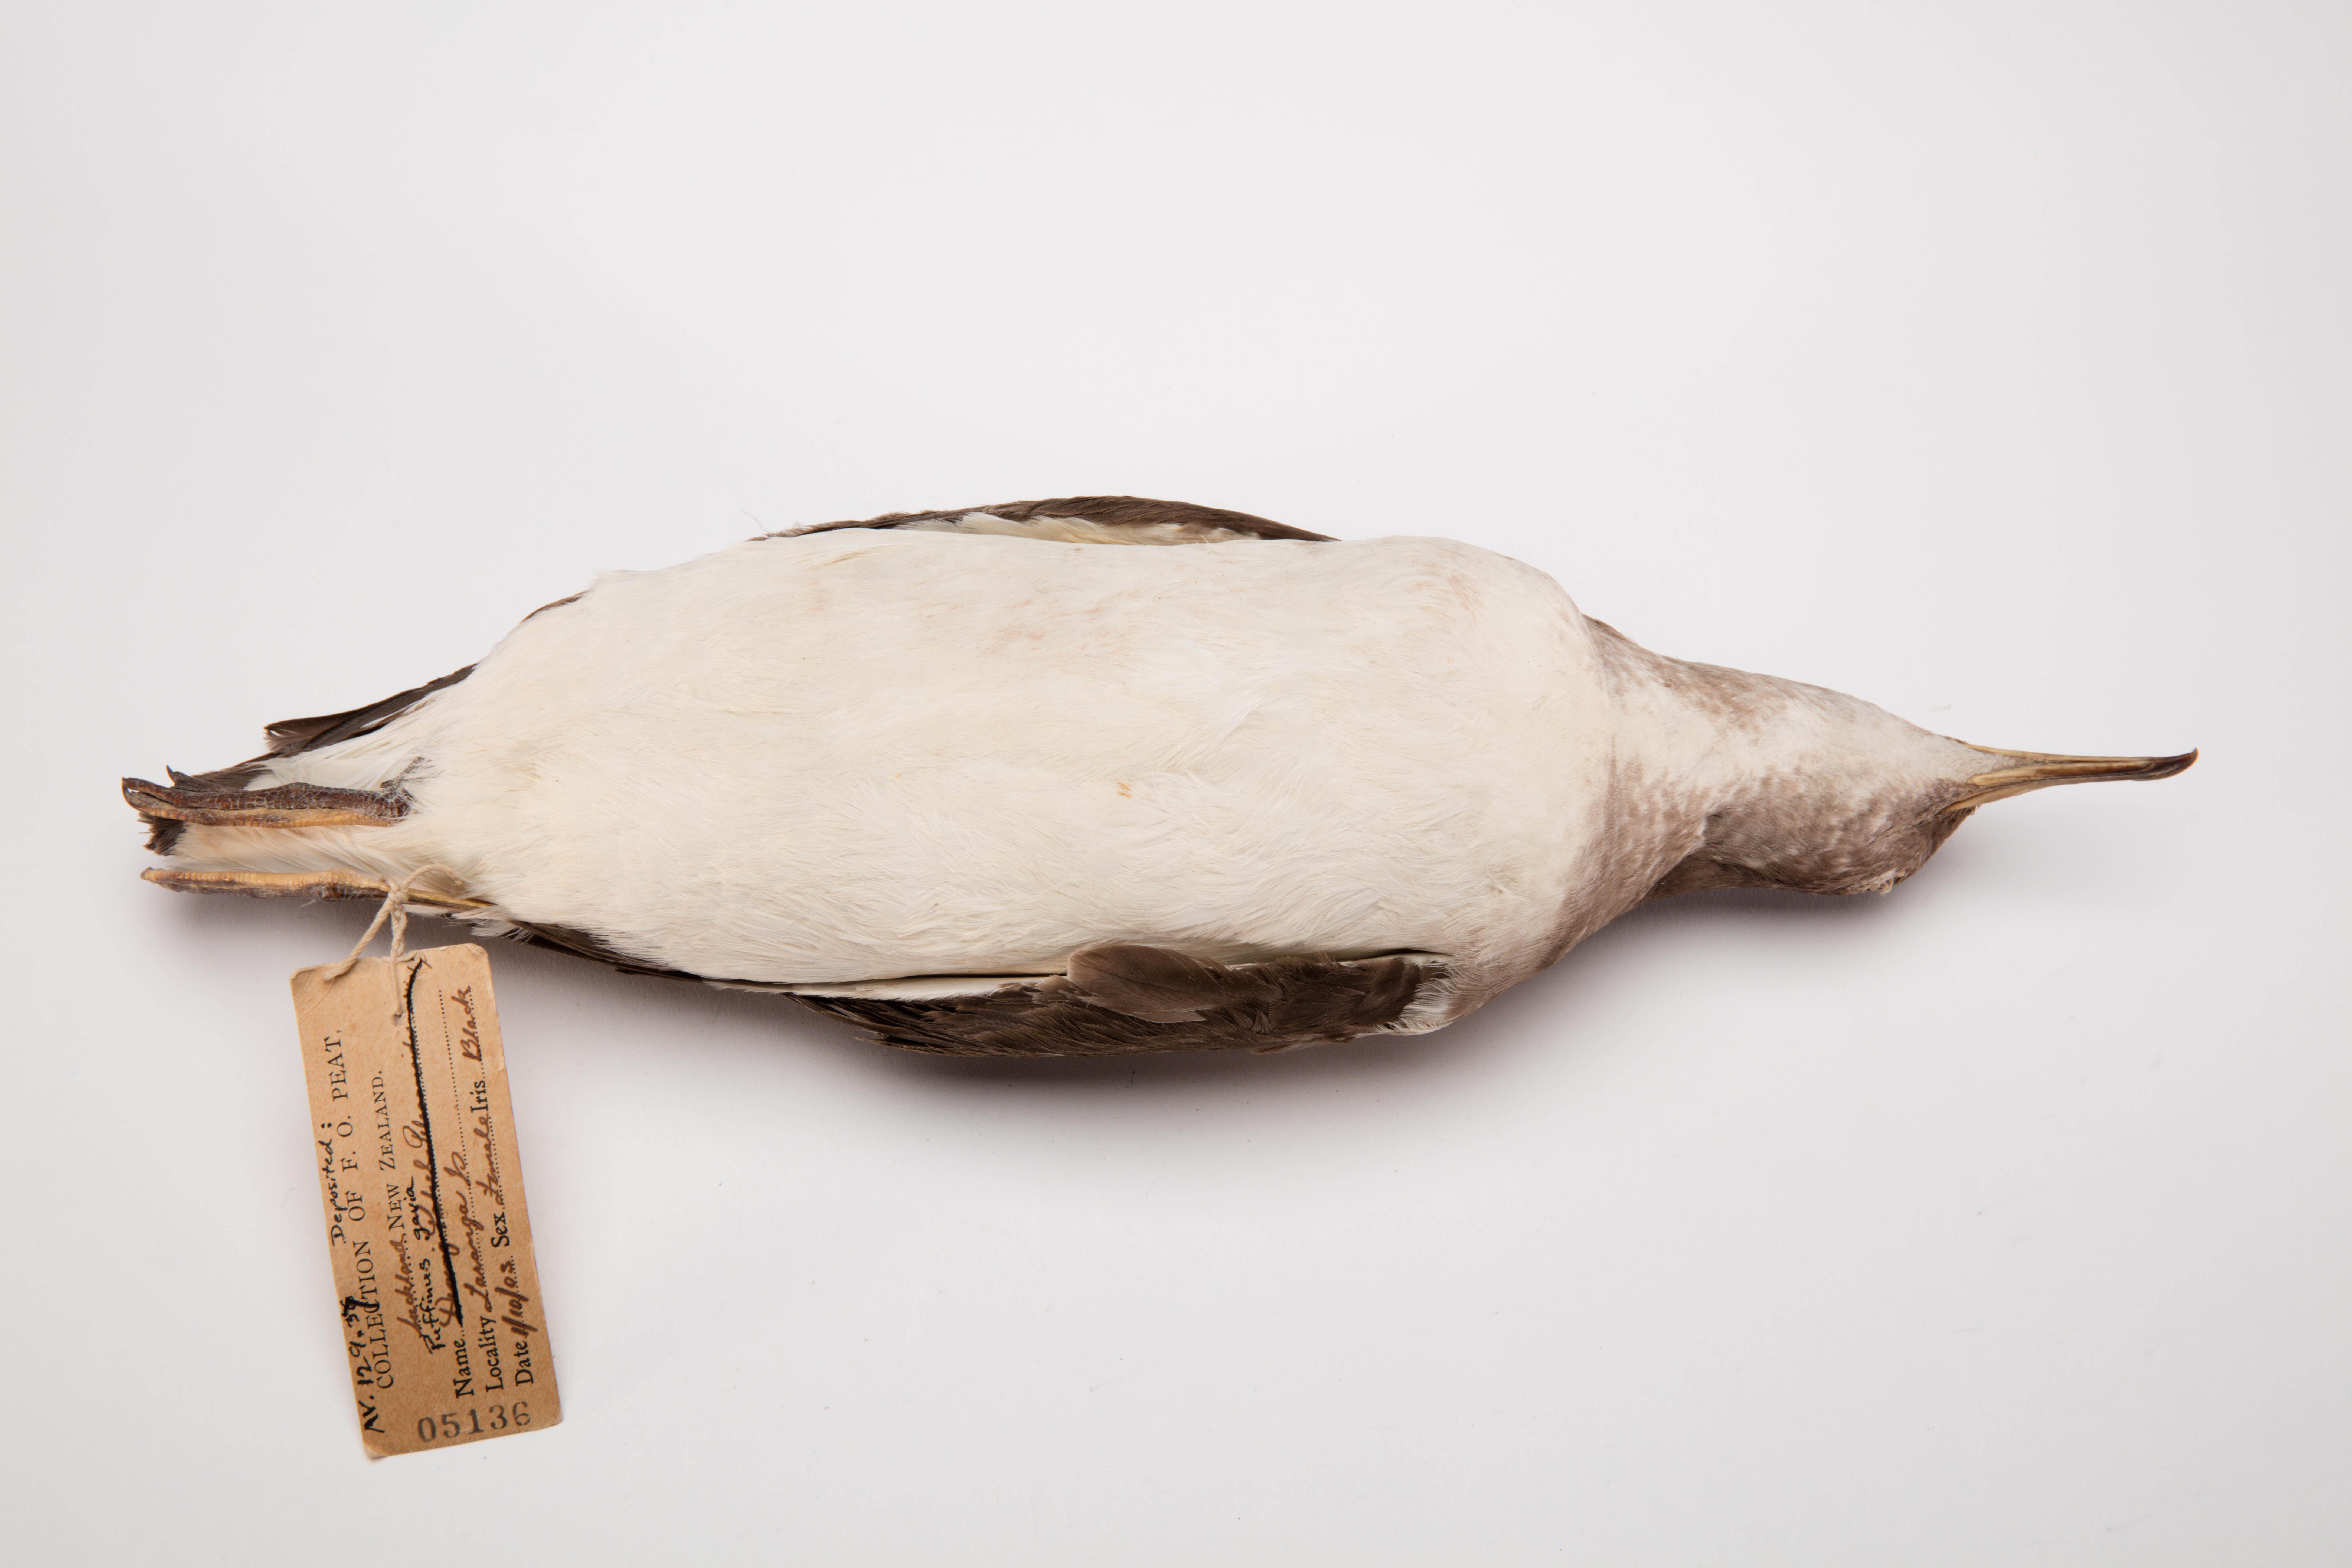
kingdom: Animalia
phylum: Chordata
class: Aves
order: Procellariiformes
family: Procellariidae
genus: Ardenna
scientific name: Ardenna
